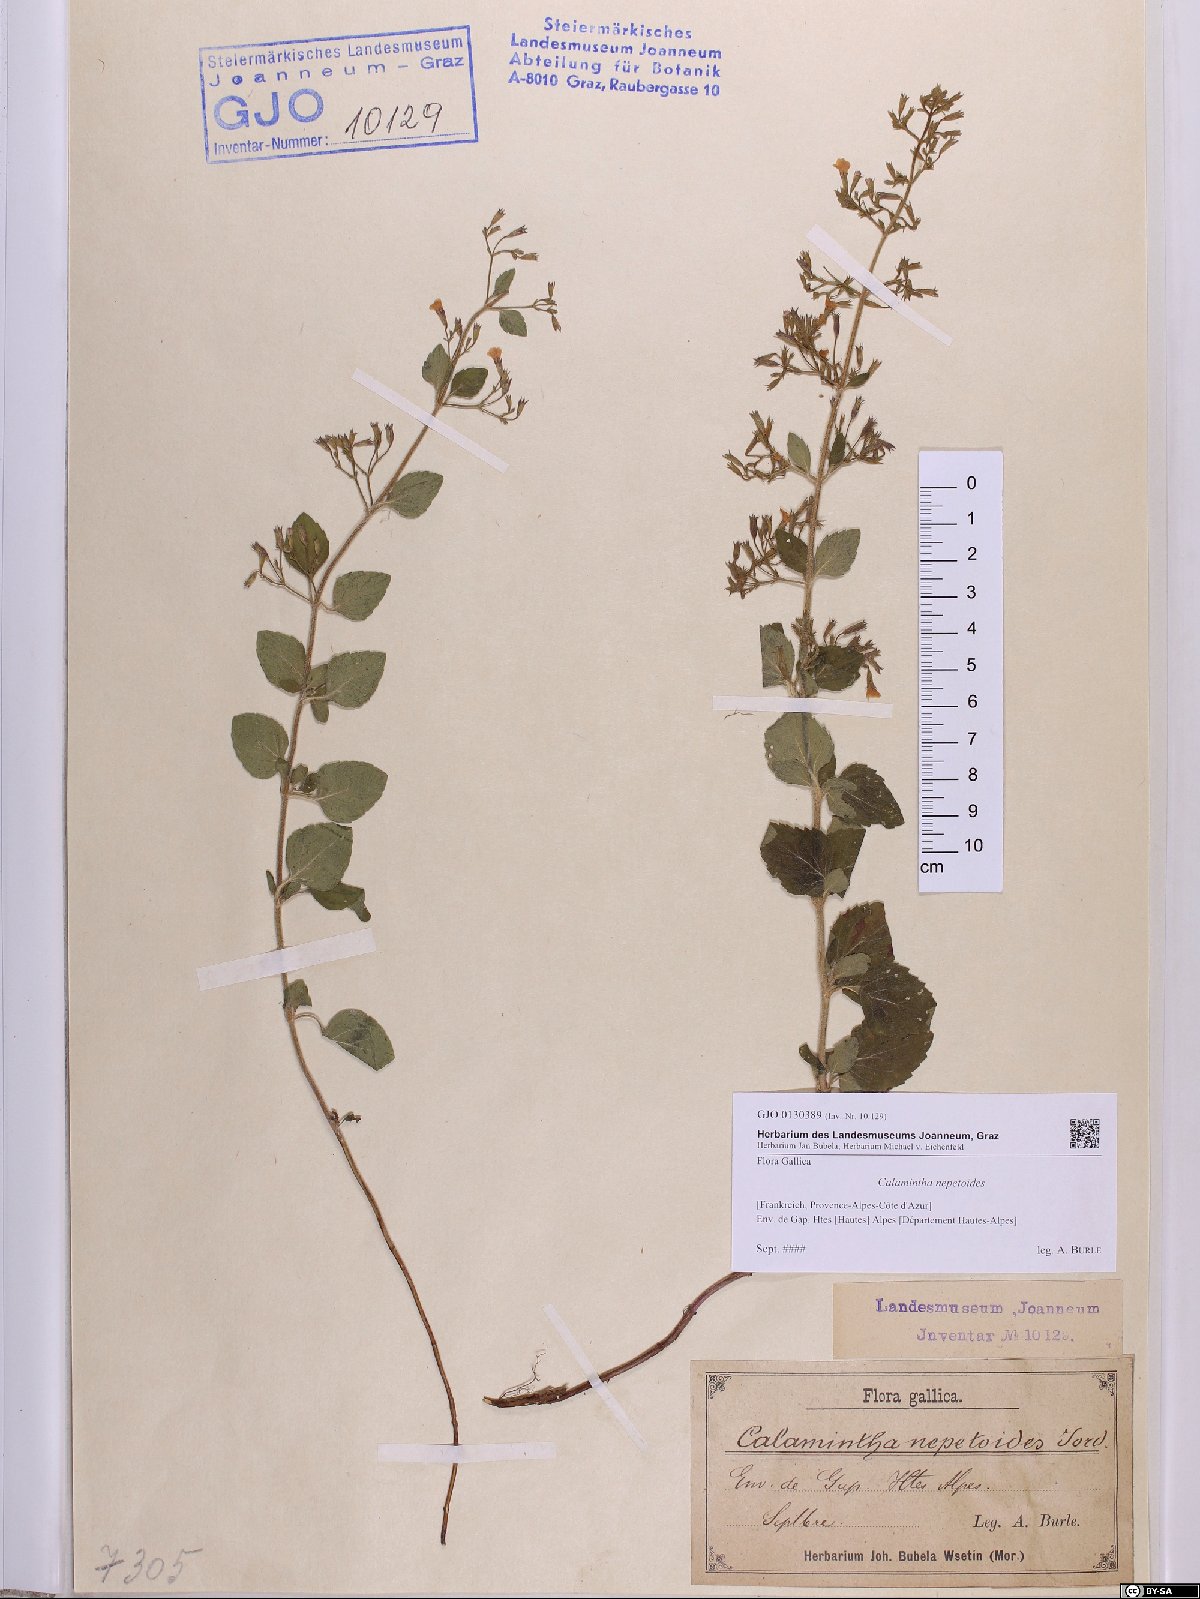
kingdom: Plantae
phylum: Tracheophyta
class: Magnoliopsida
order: Lamiales
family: Lamiaceae
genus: Clinopodium
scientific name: Clinopodium nepeta
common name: Lesser calamint
